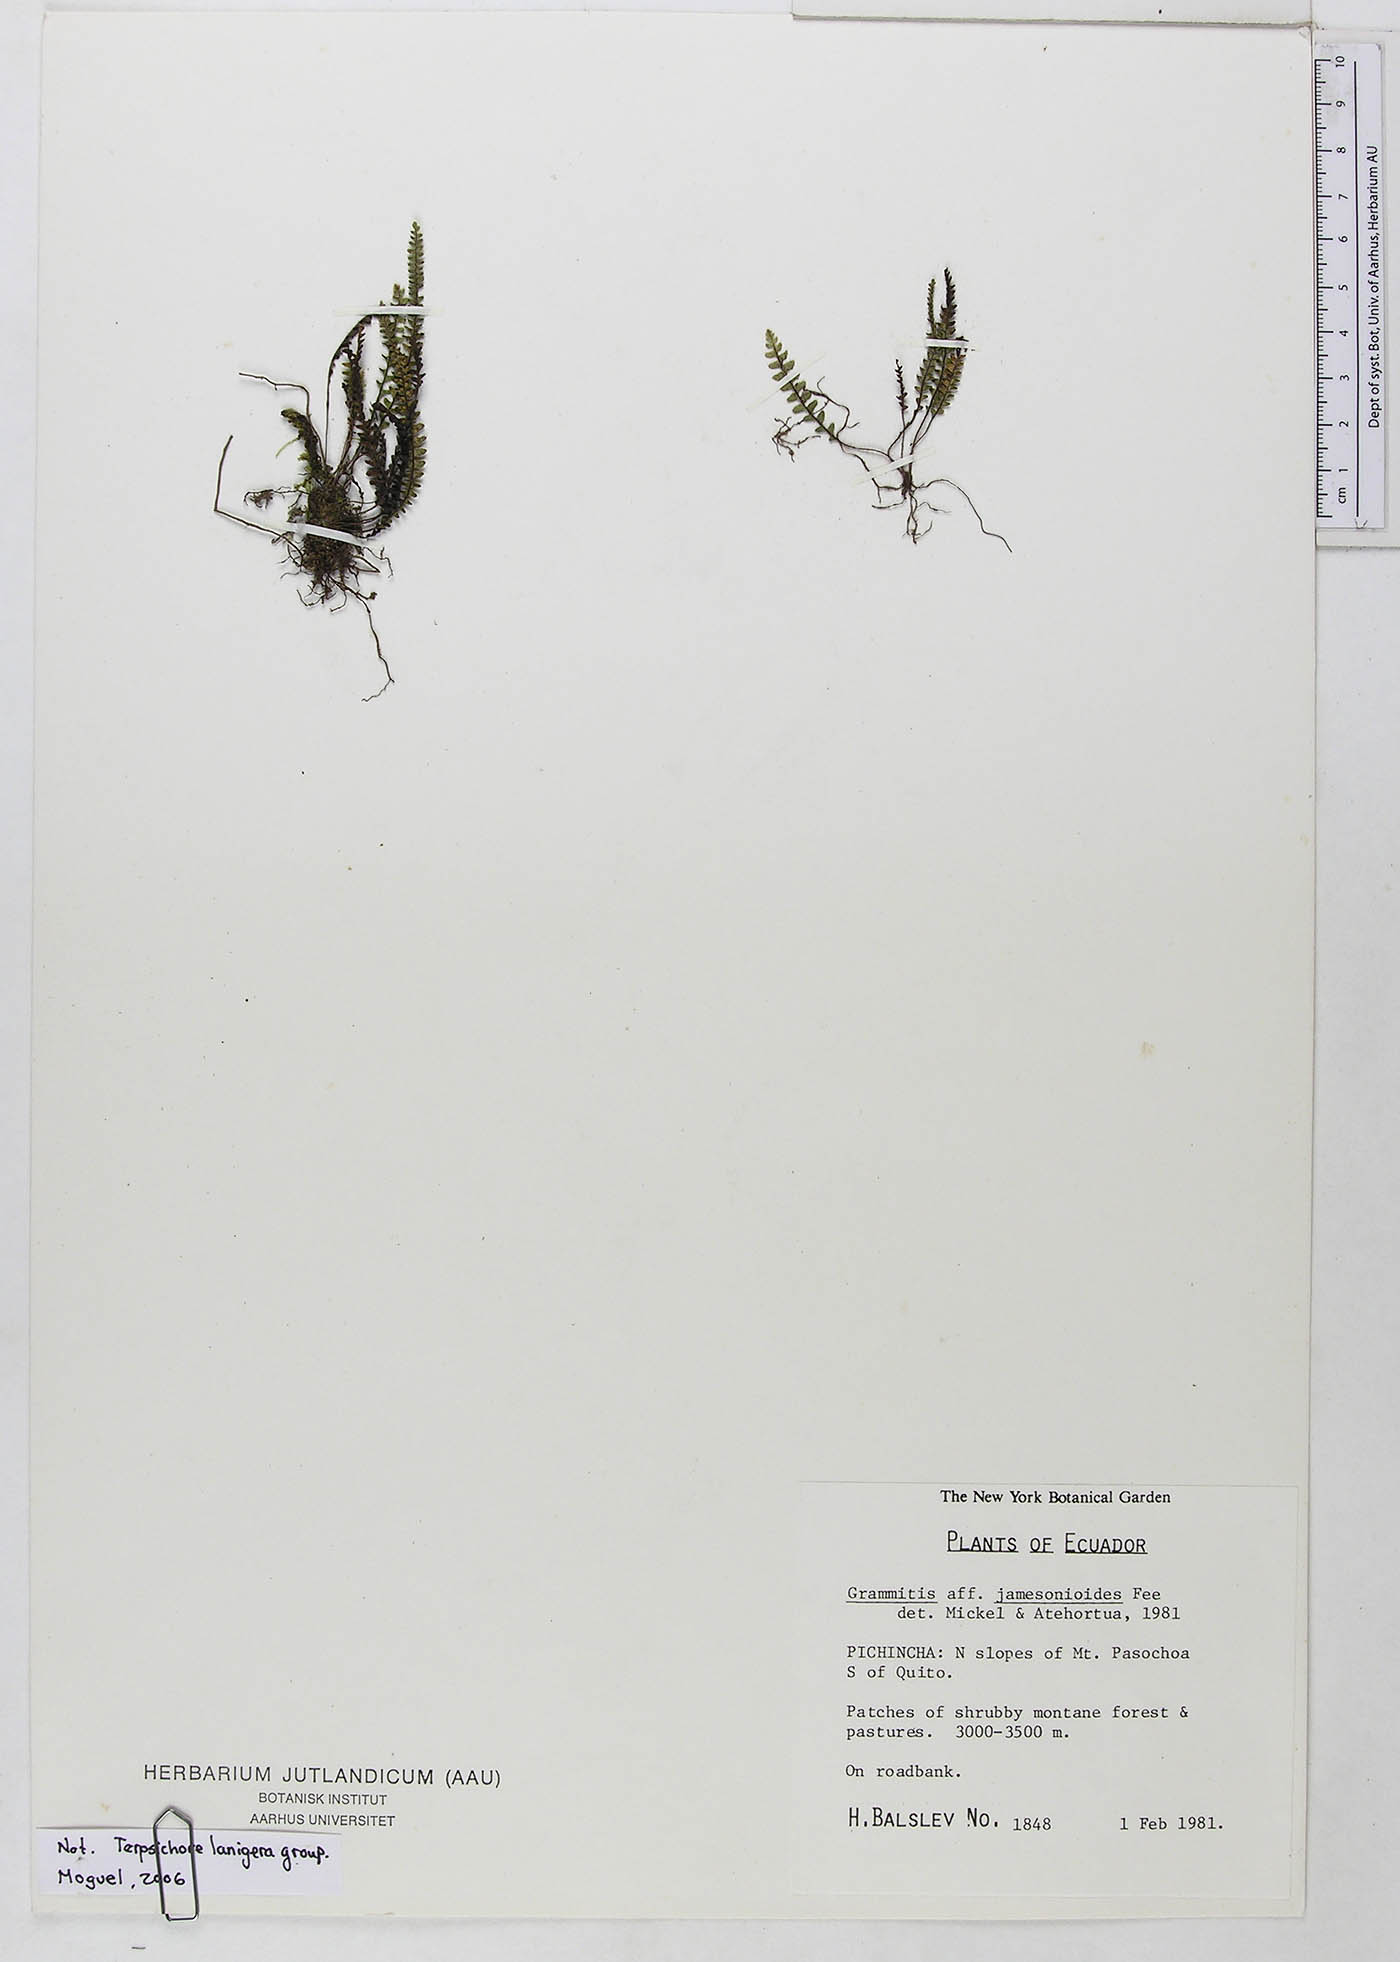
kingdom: Plantae
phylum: Tracheophyta
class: Polypodiopsida
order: Polypodiales
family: Polypodiaceae
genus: Ascogrammitis
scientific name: Ascogrammitis pichinchensis
